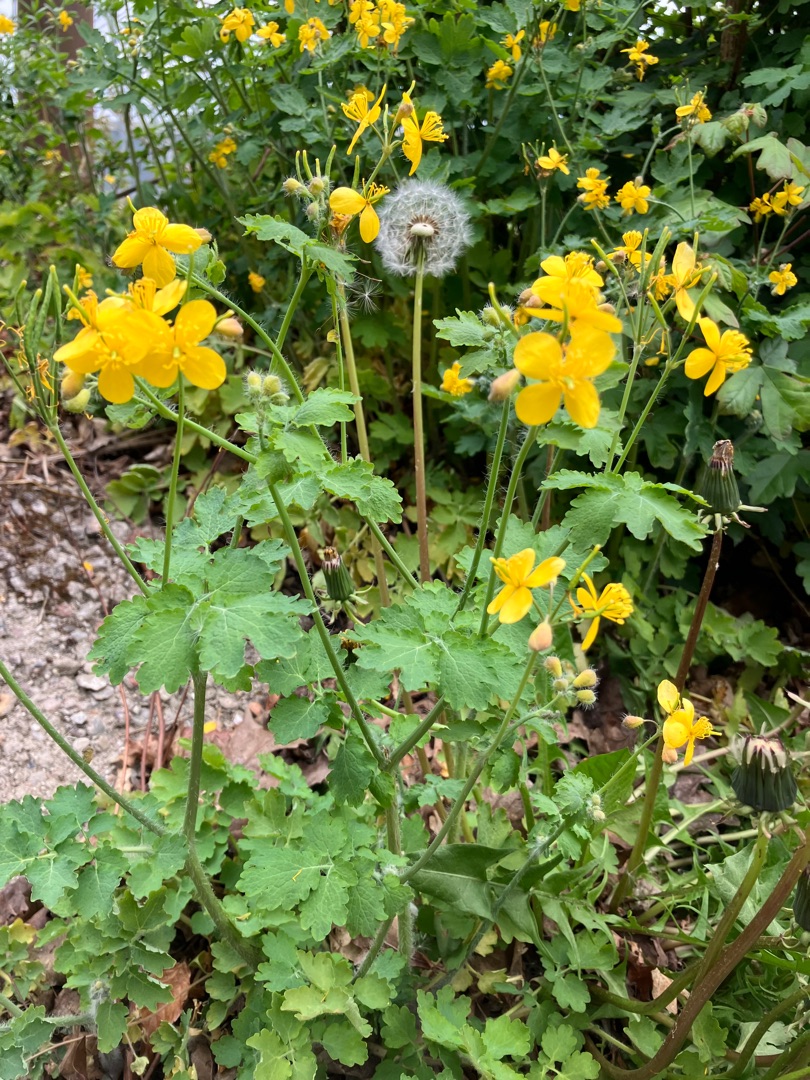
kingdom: Plantae
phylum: Tracheophyta
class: Magnoliopsida
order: Ranunculales
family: Papaveraceae
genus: Chelidonium
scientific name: Chelidonium majus
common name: Svaleurt
